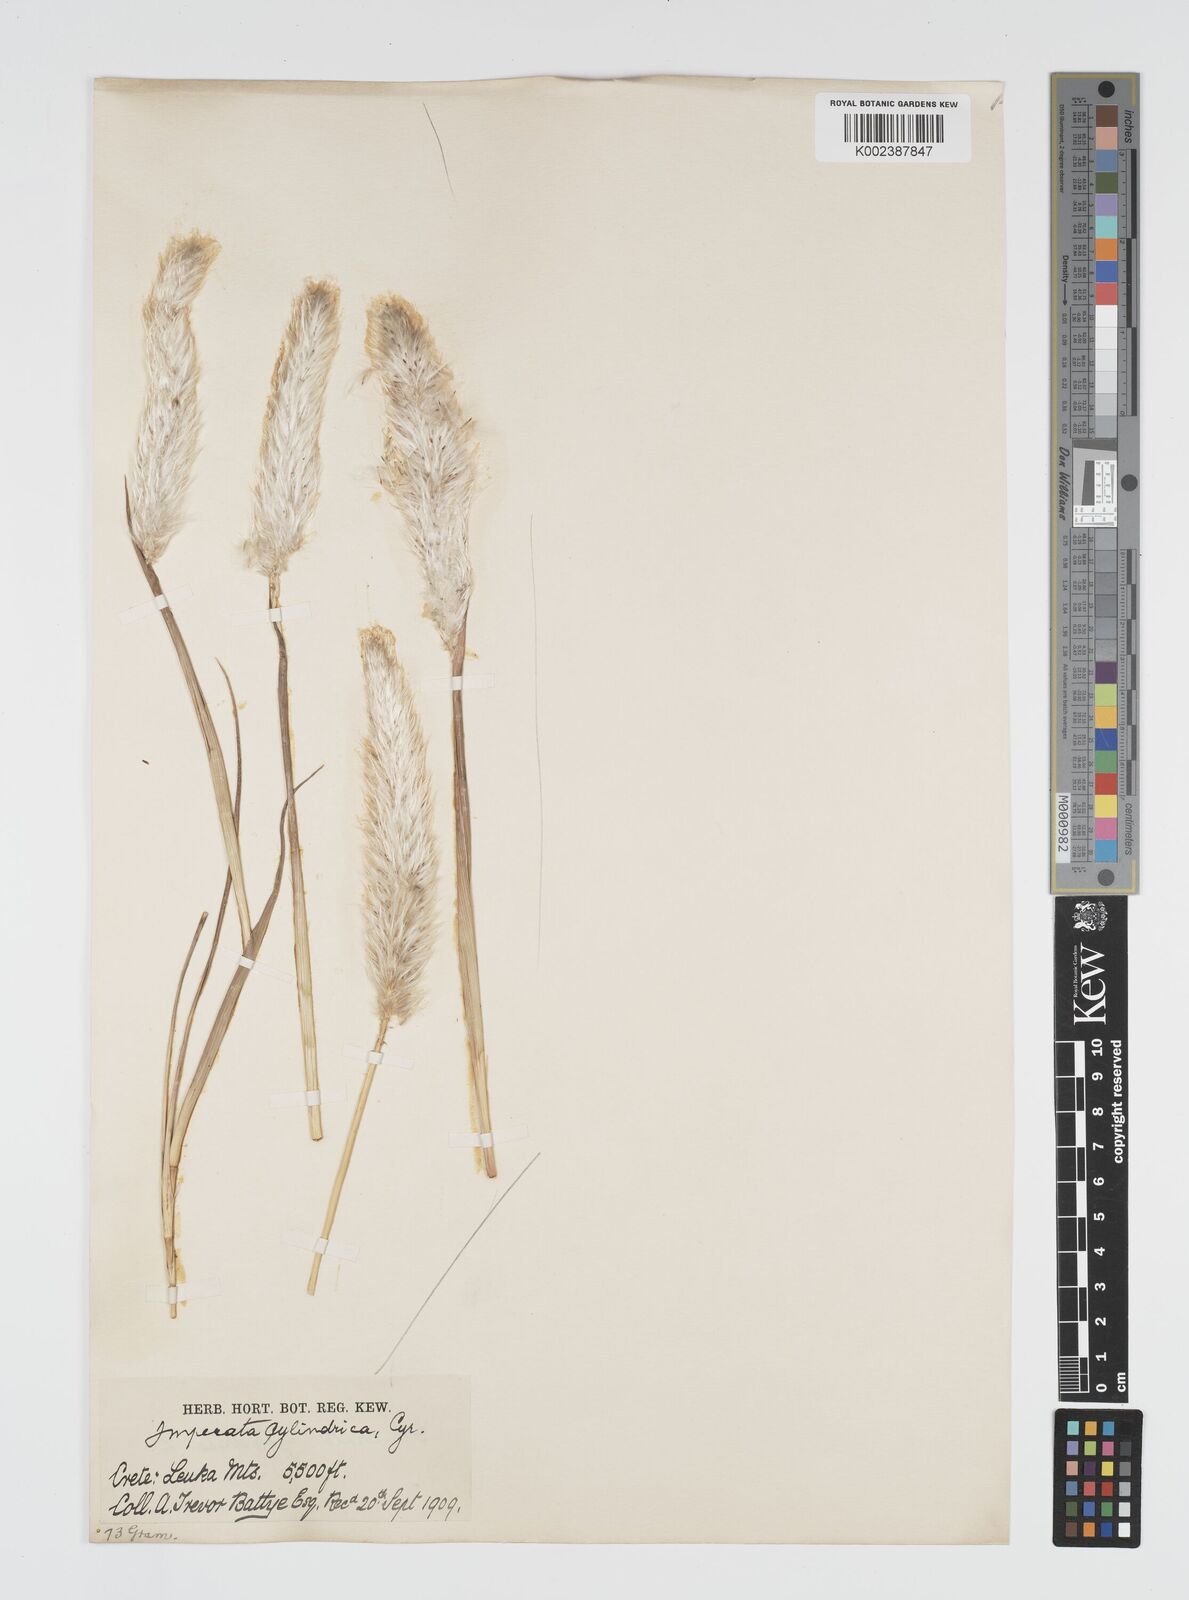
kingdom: Plantae
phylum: Tracheophyta
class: Liliopsida
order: Poales
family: Poaceae
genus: Imperata
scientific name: Imperata cylindrica
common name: Cogongrass
